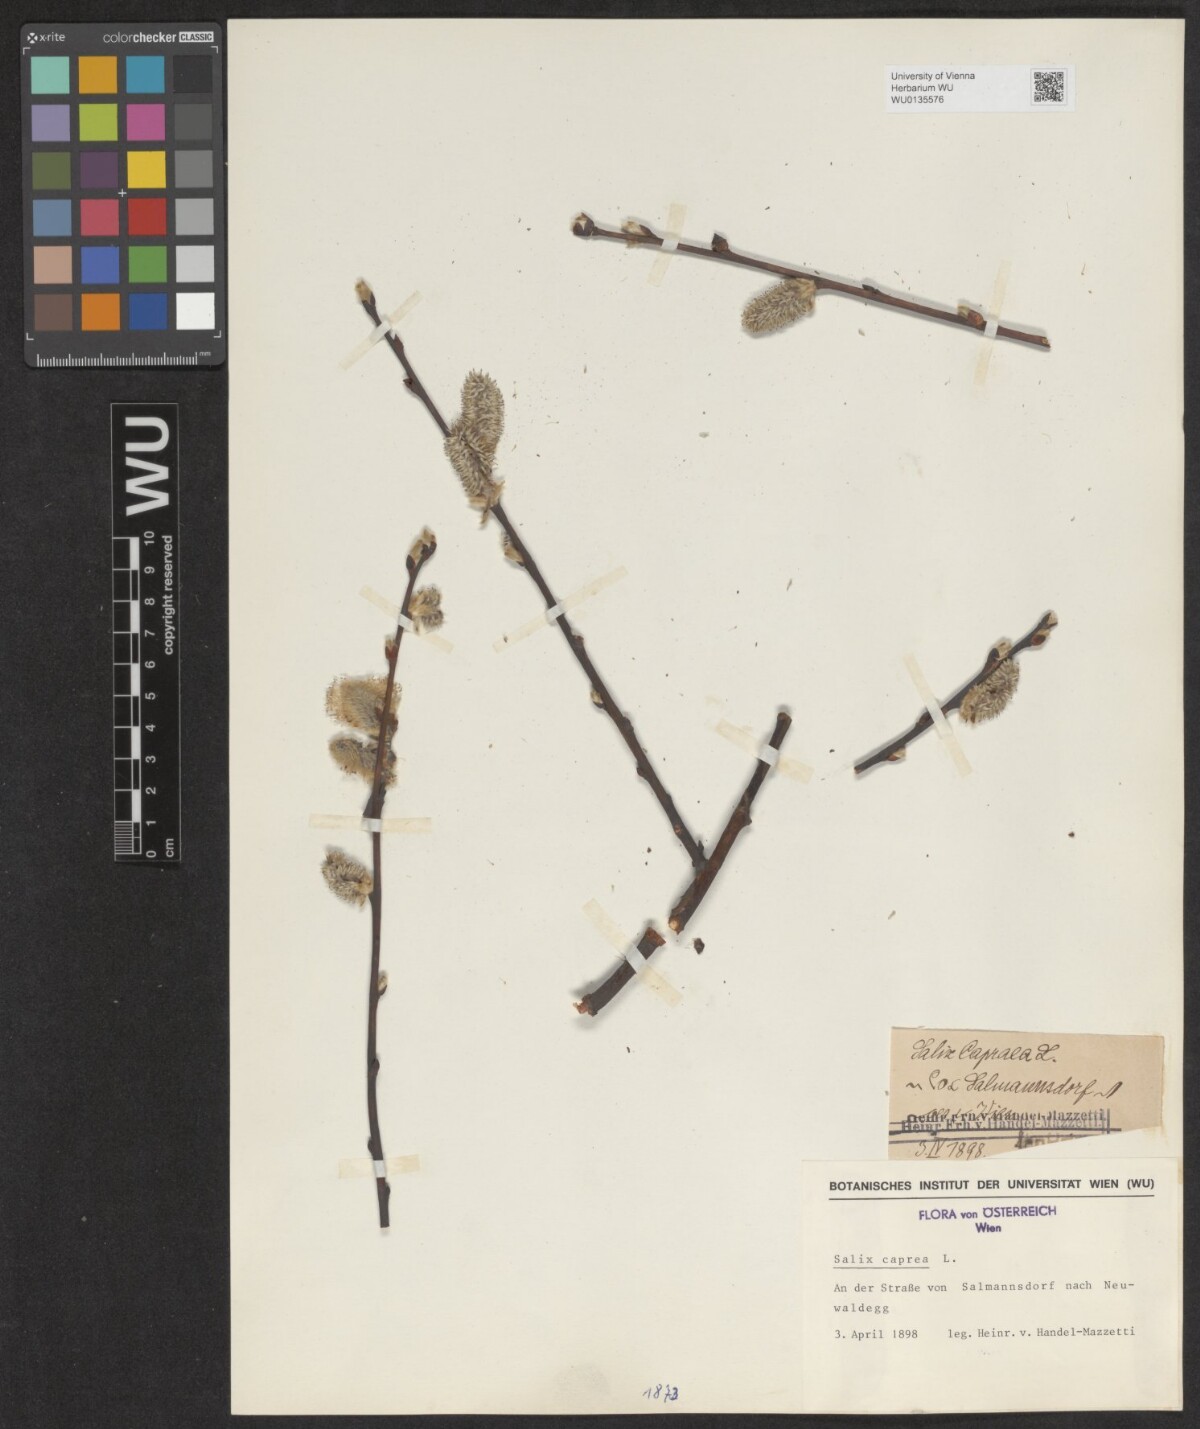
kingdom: Plantae
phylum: Tracheophyta
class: Magnoliopsida
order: Malpighiales
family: Salicaceae
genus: Salix
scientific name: Salix caprea
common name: Goat willow
